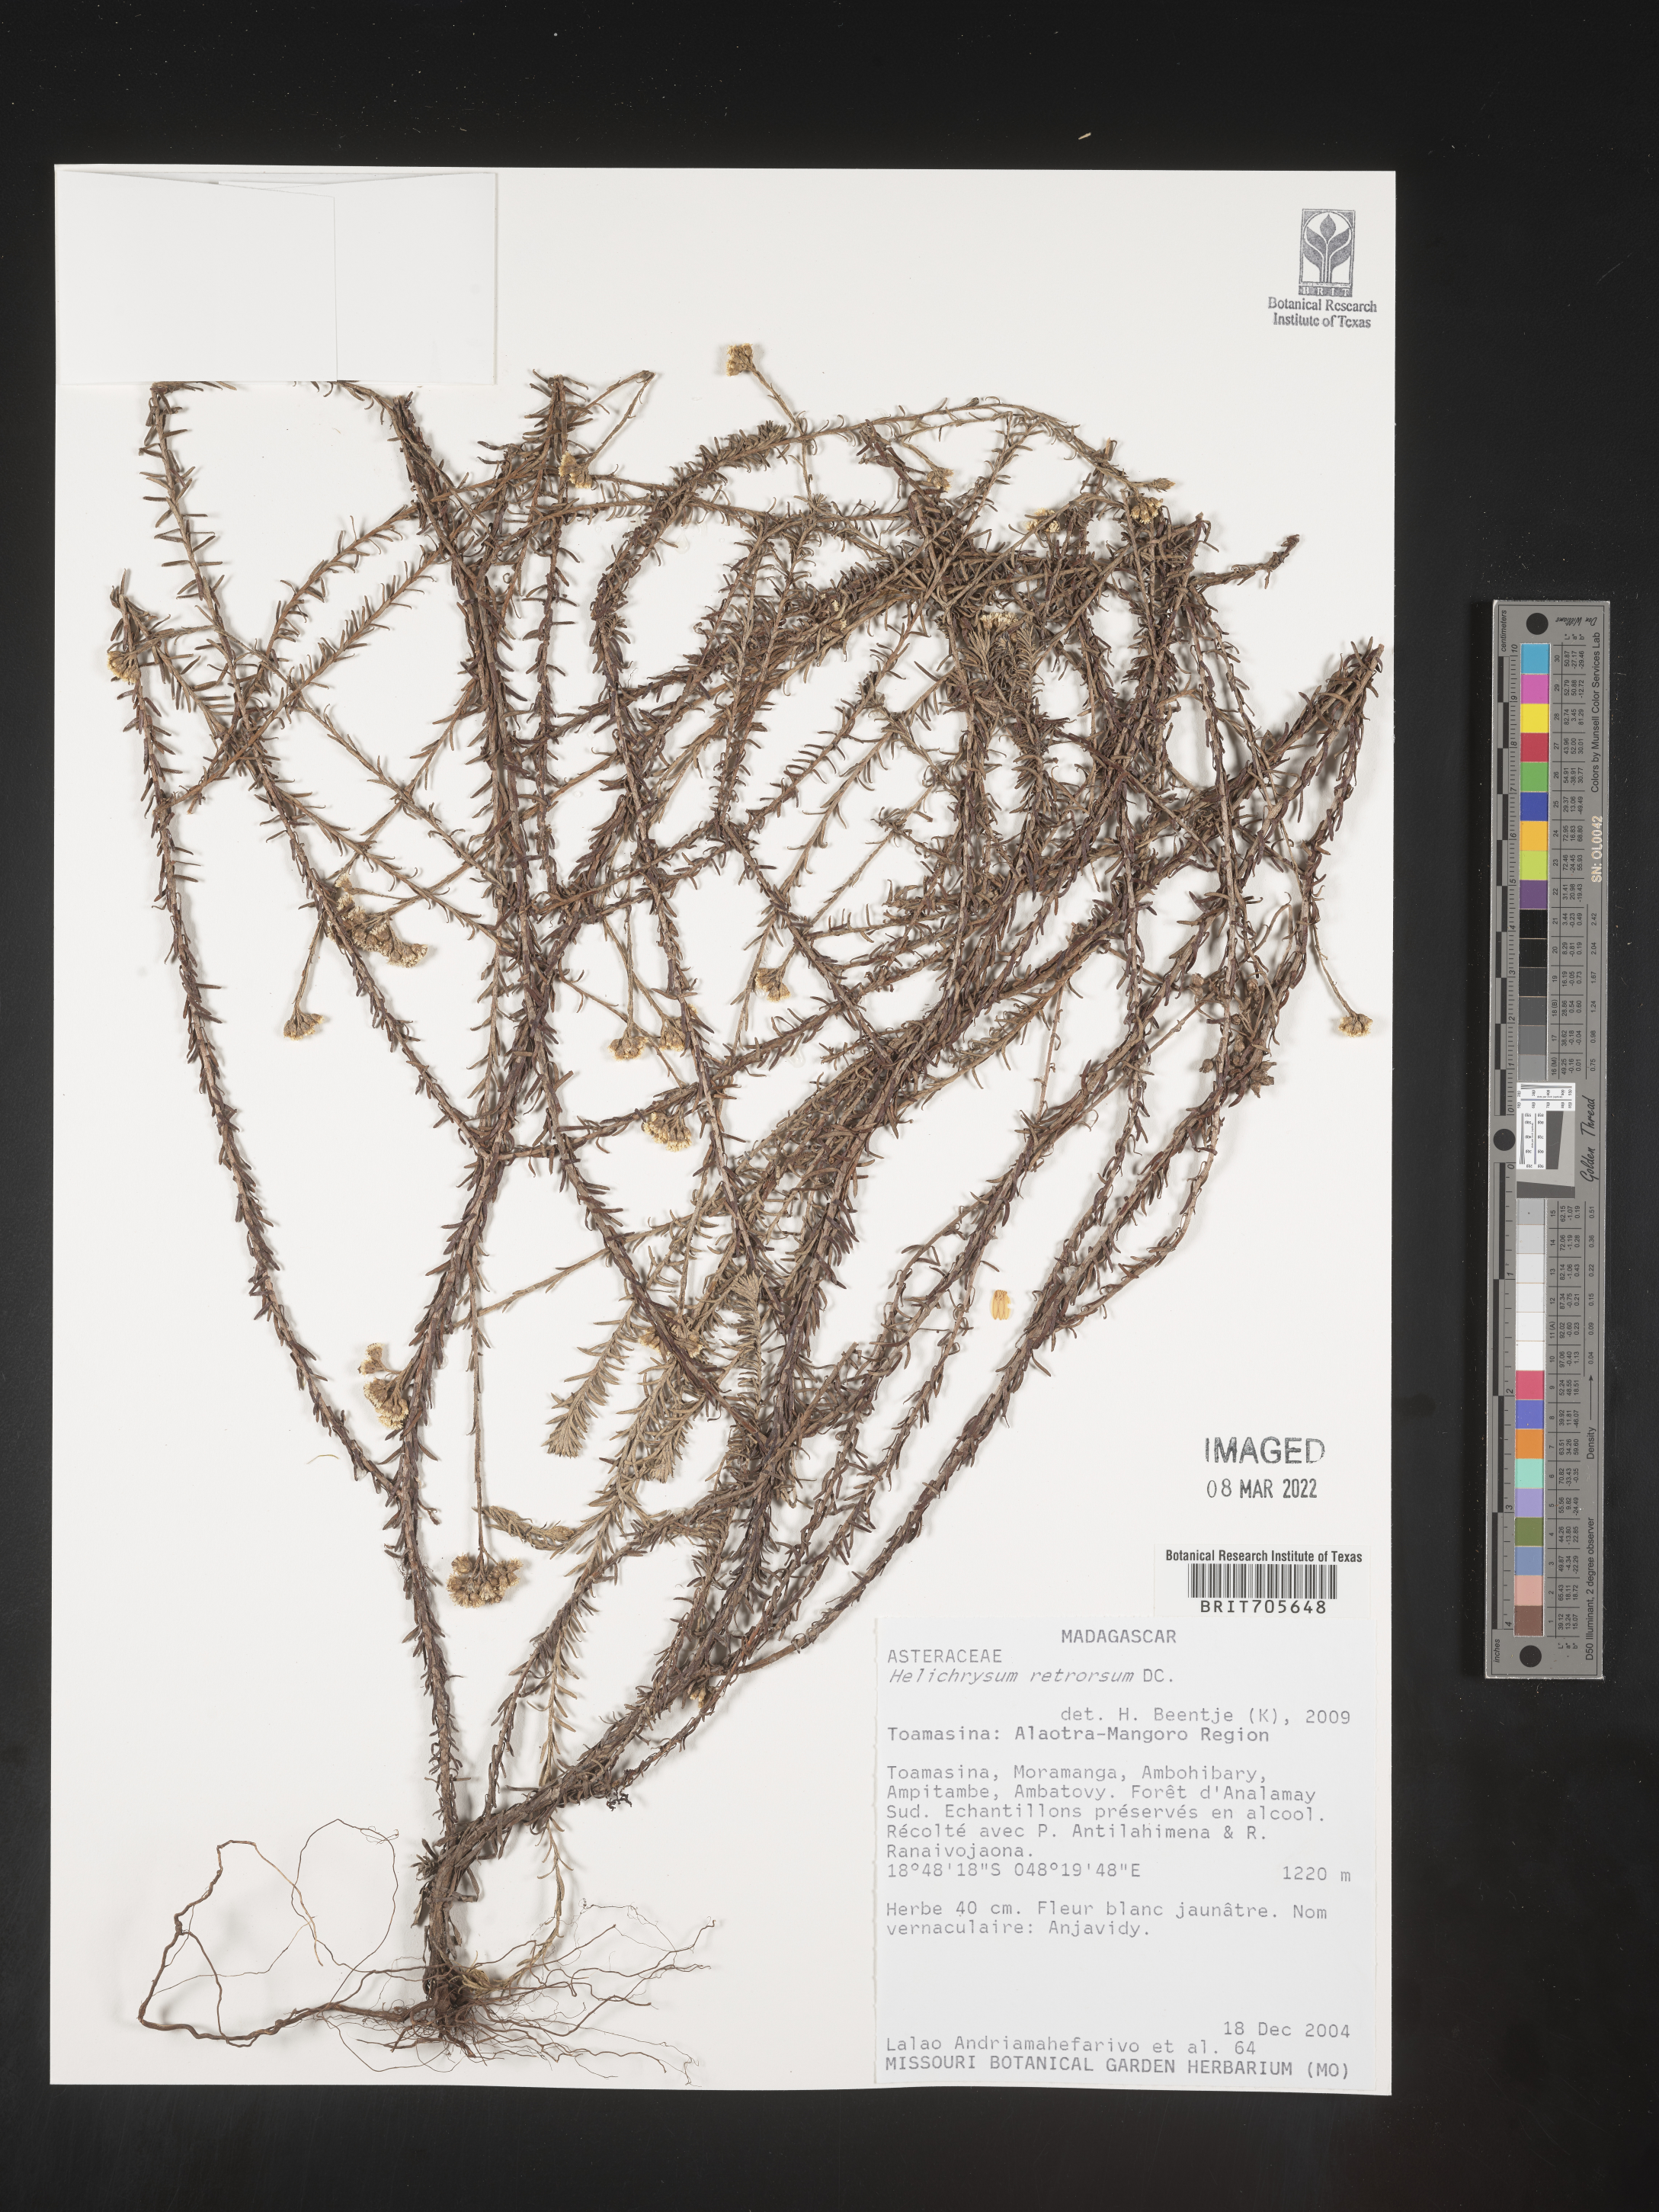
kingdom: Plantae
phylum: Tracheophyta
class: Magnoliopsida
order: Asterales
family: Asteraceae
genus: Helichrysum
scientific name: Helichrysum
